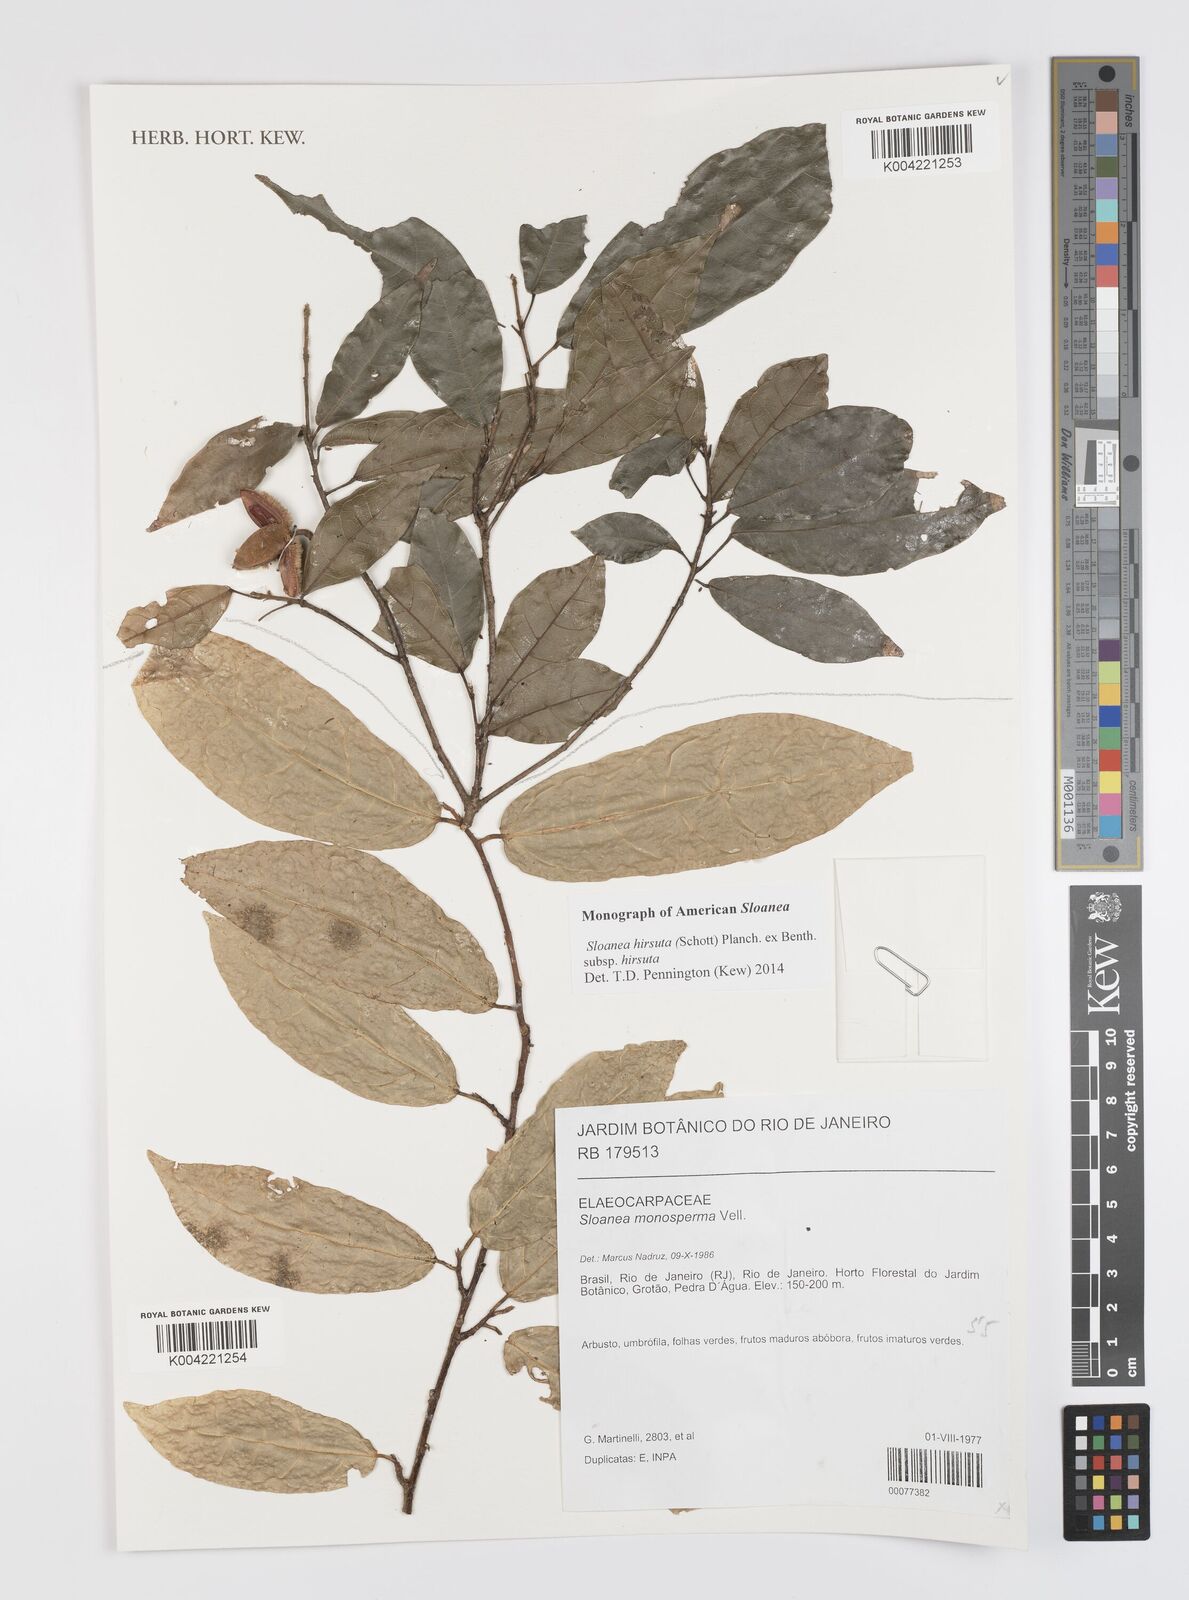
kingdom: Plantae
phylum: Tracheophyta
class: Magnoliopsida
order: Oxalidales
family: Elaeocarpaceae
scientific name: Elaeocarpaceae
